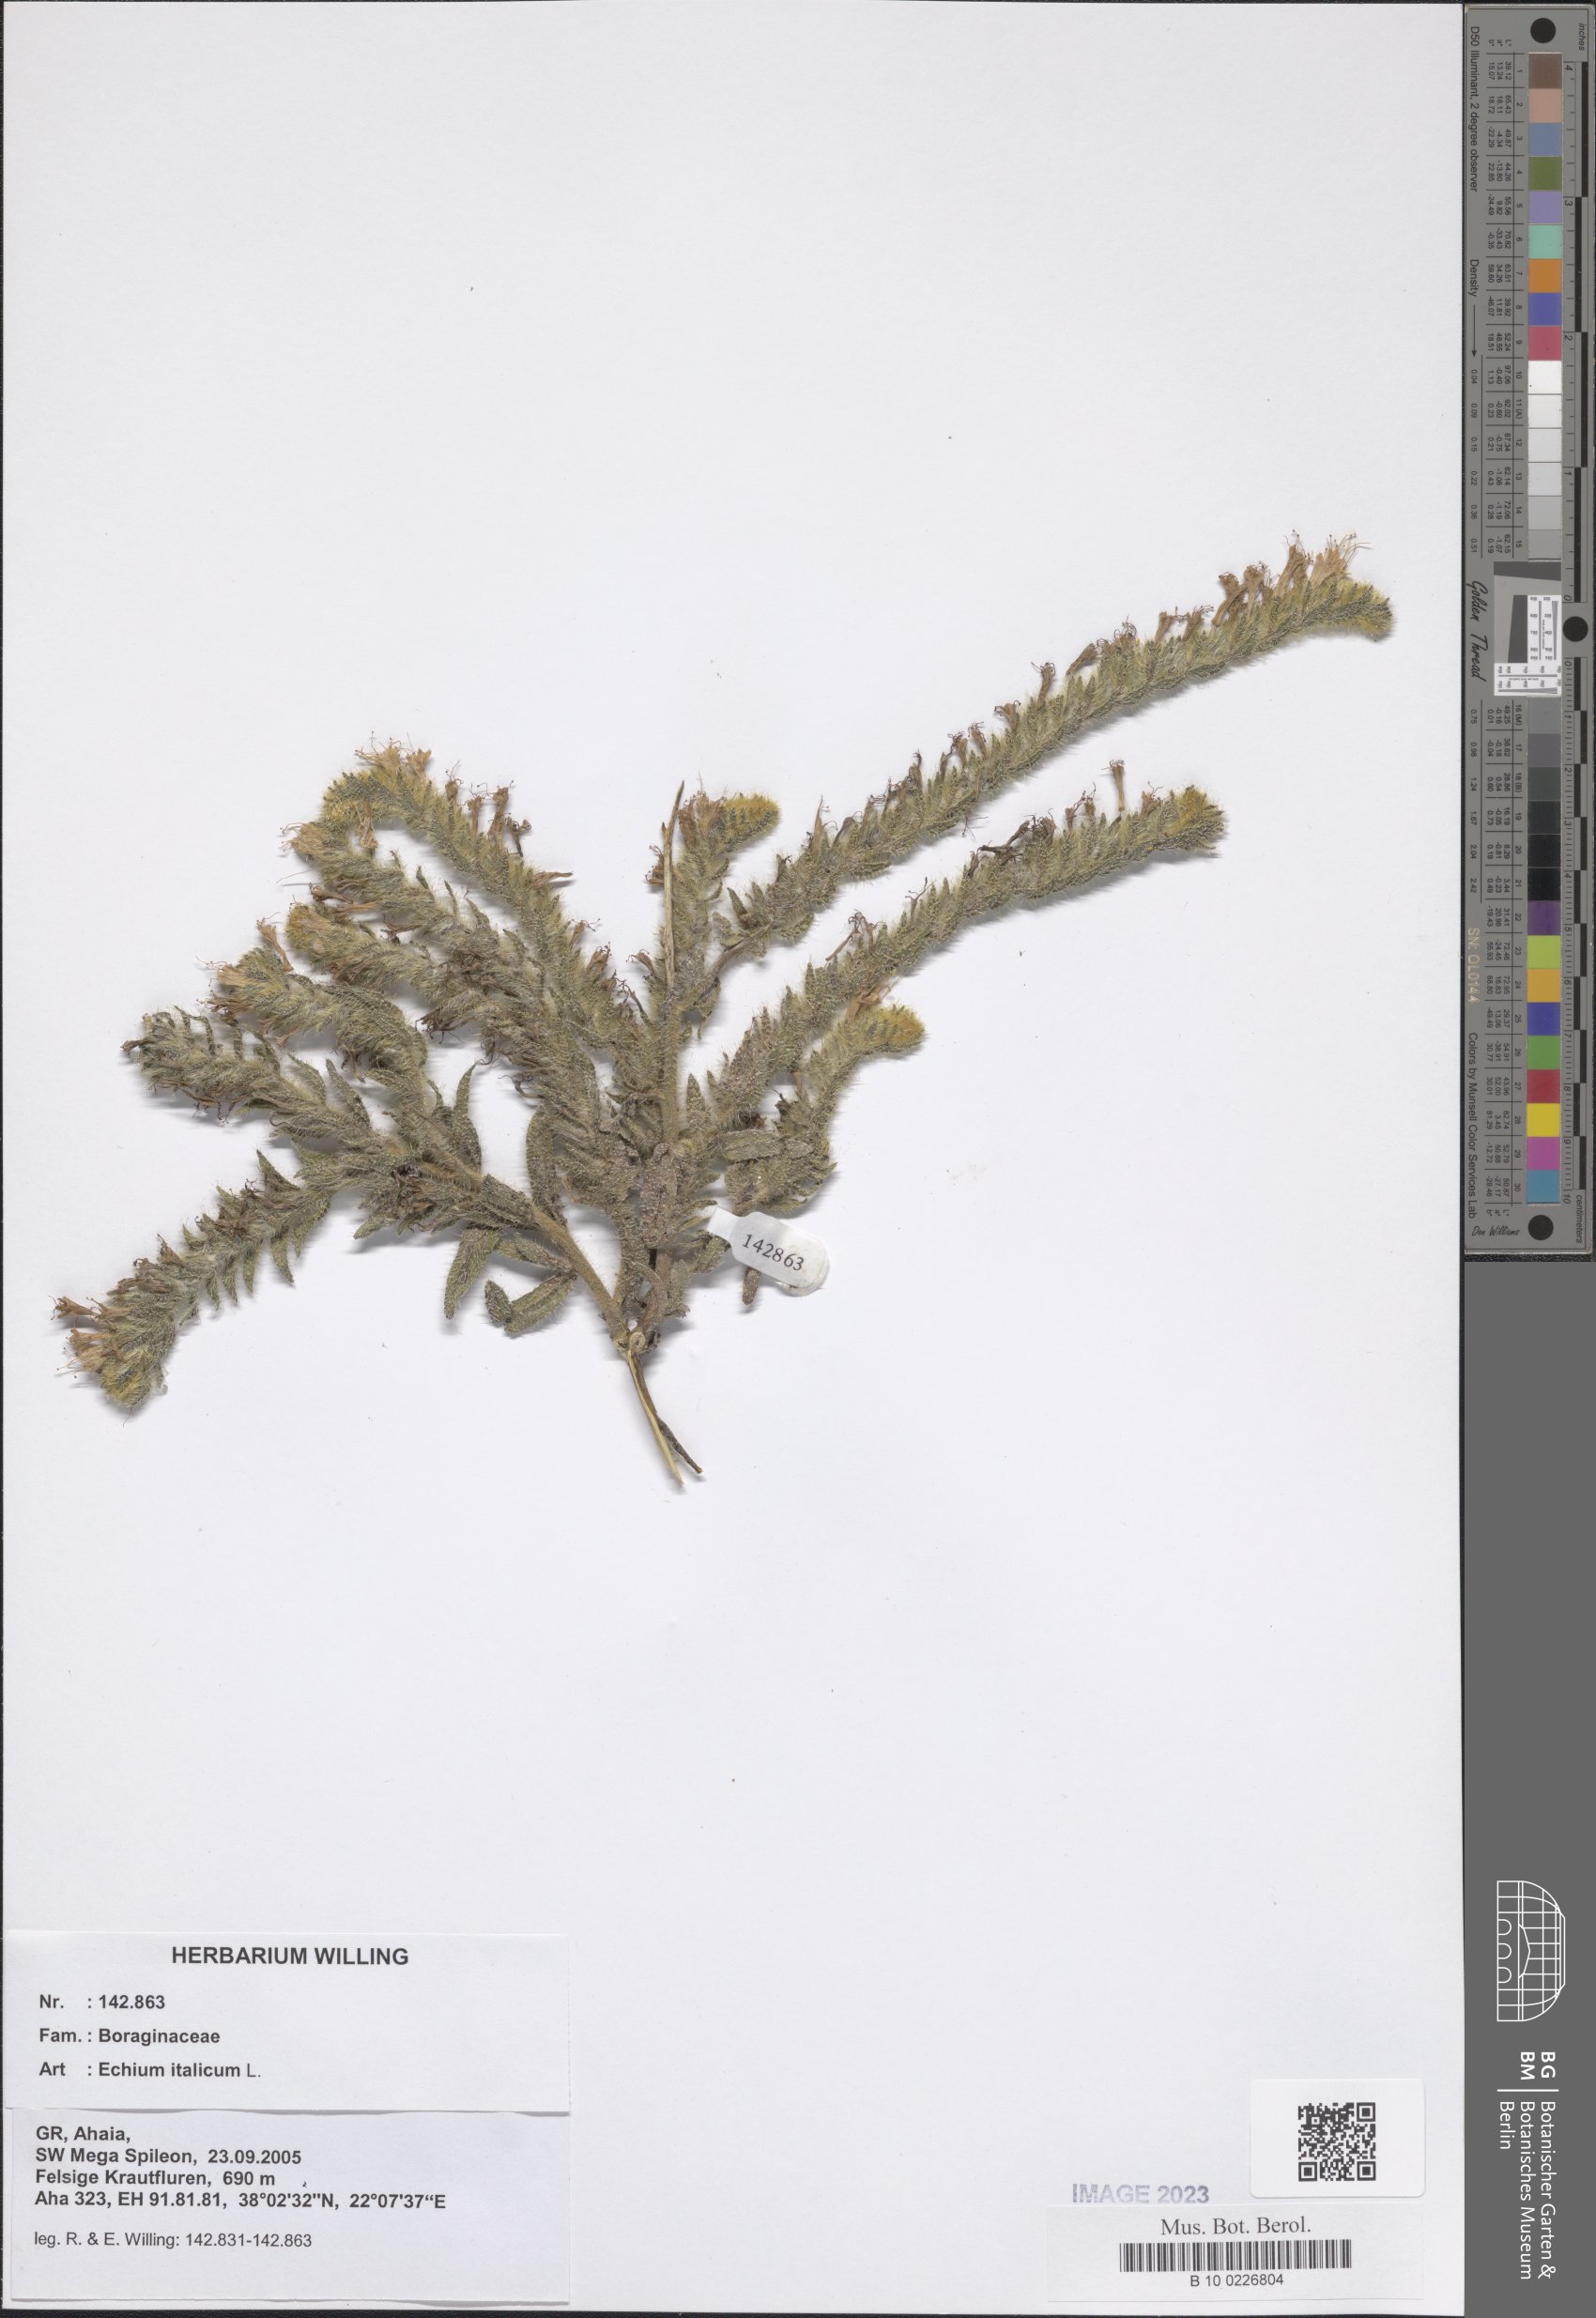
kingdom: Plantae
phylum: Tracheophyta
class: Magnoliopsida
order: Boraginales
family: Boraginaceae
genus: Echium
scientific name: Echium italicum
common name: Italian viper's bugloss
